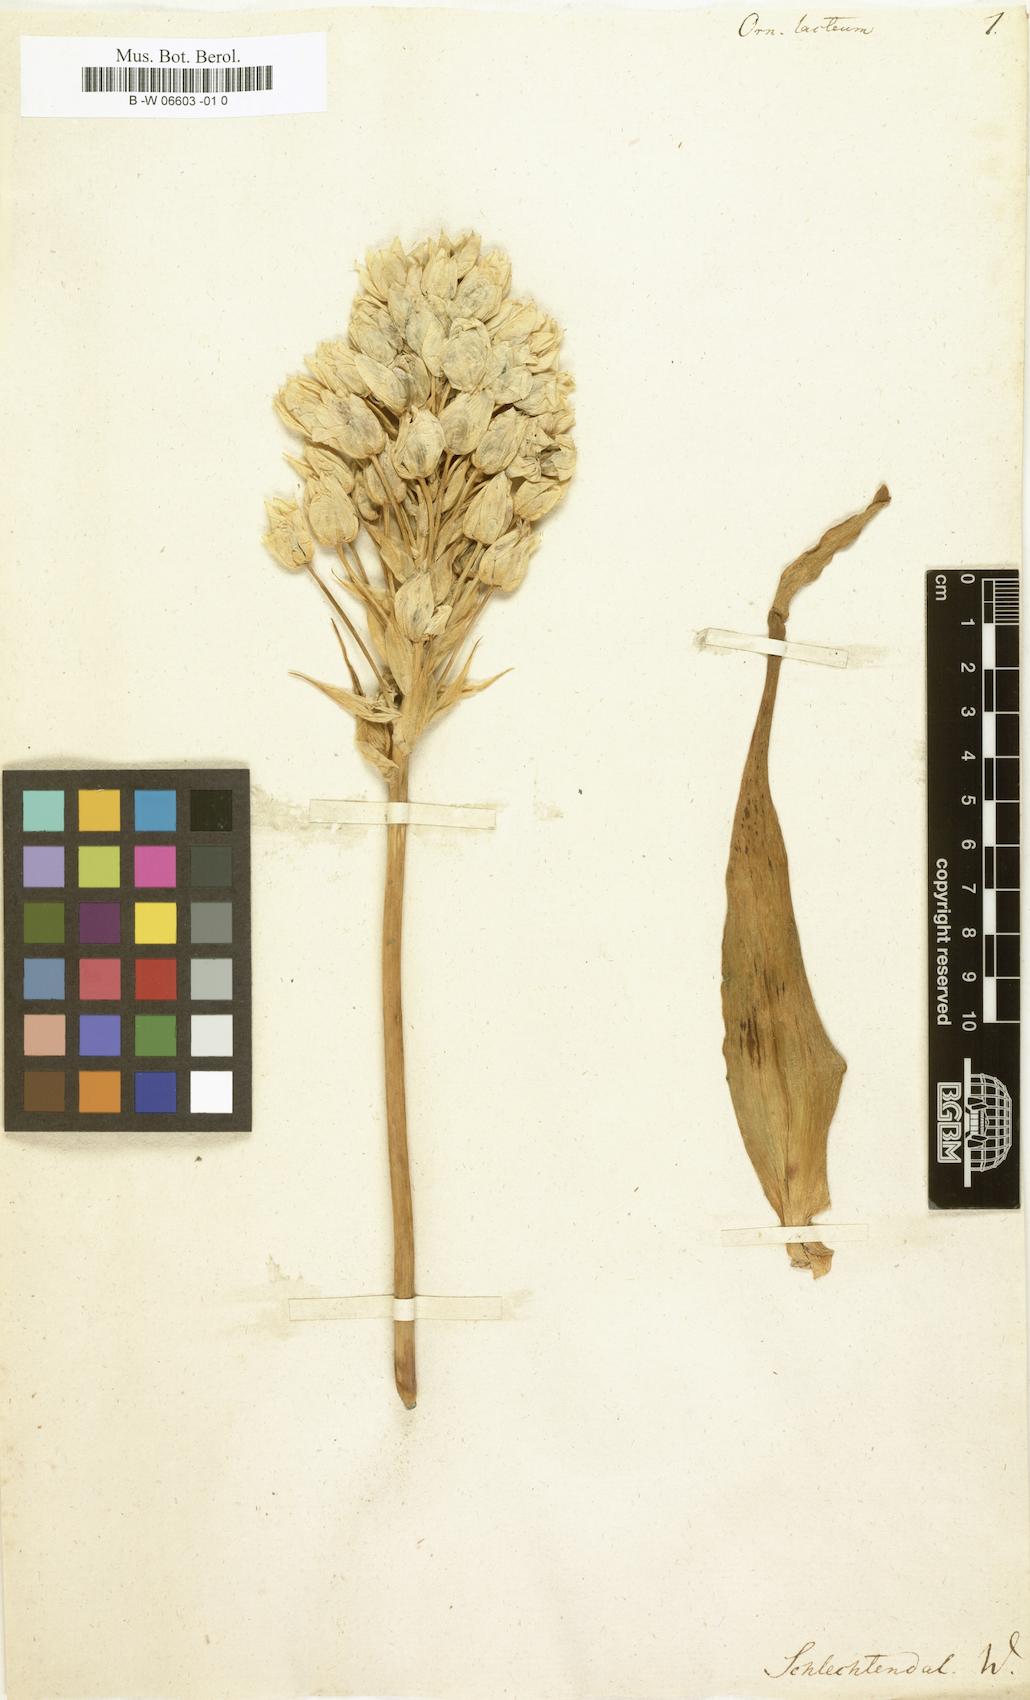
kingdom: Plantae
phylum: Tracheophyta
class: Liliopsida
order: Asparagales
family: Asparagaceae
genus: Ornithogalum
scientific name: Ornithogalum
